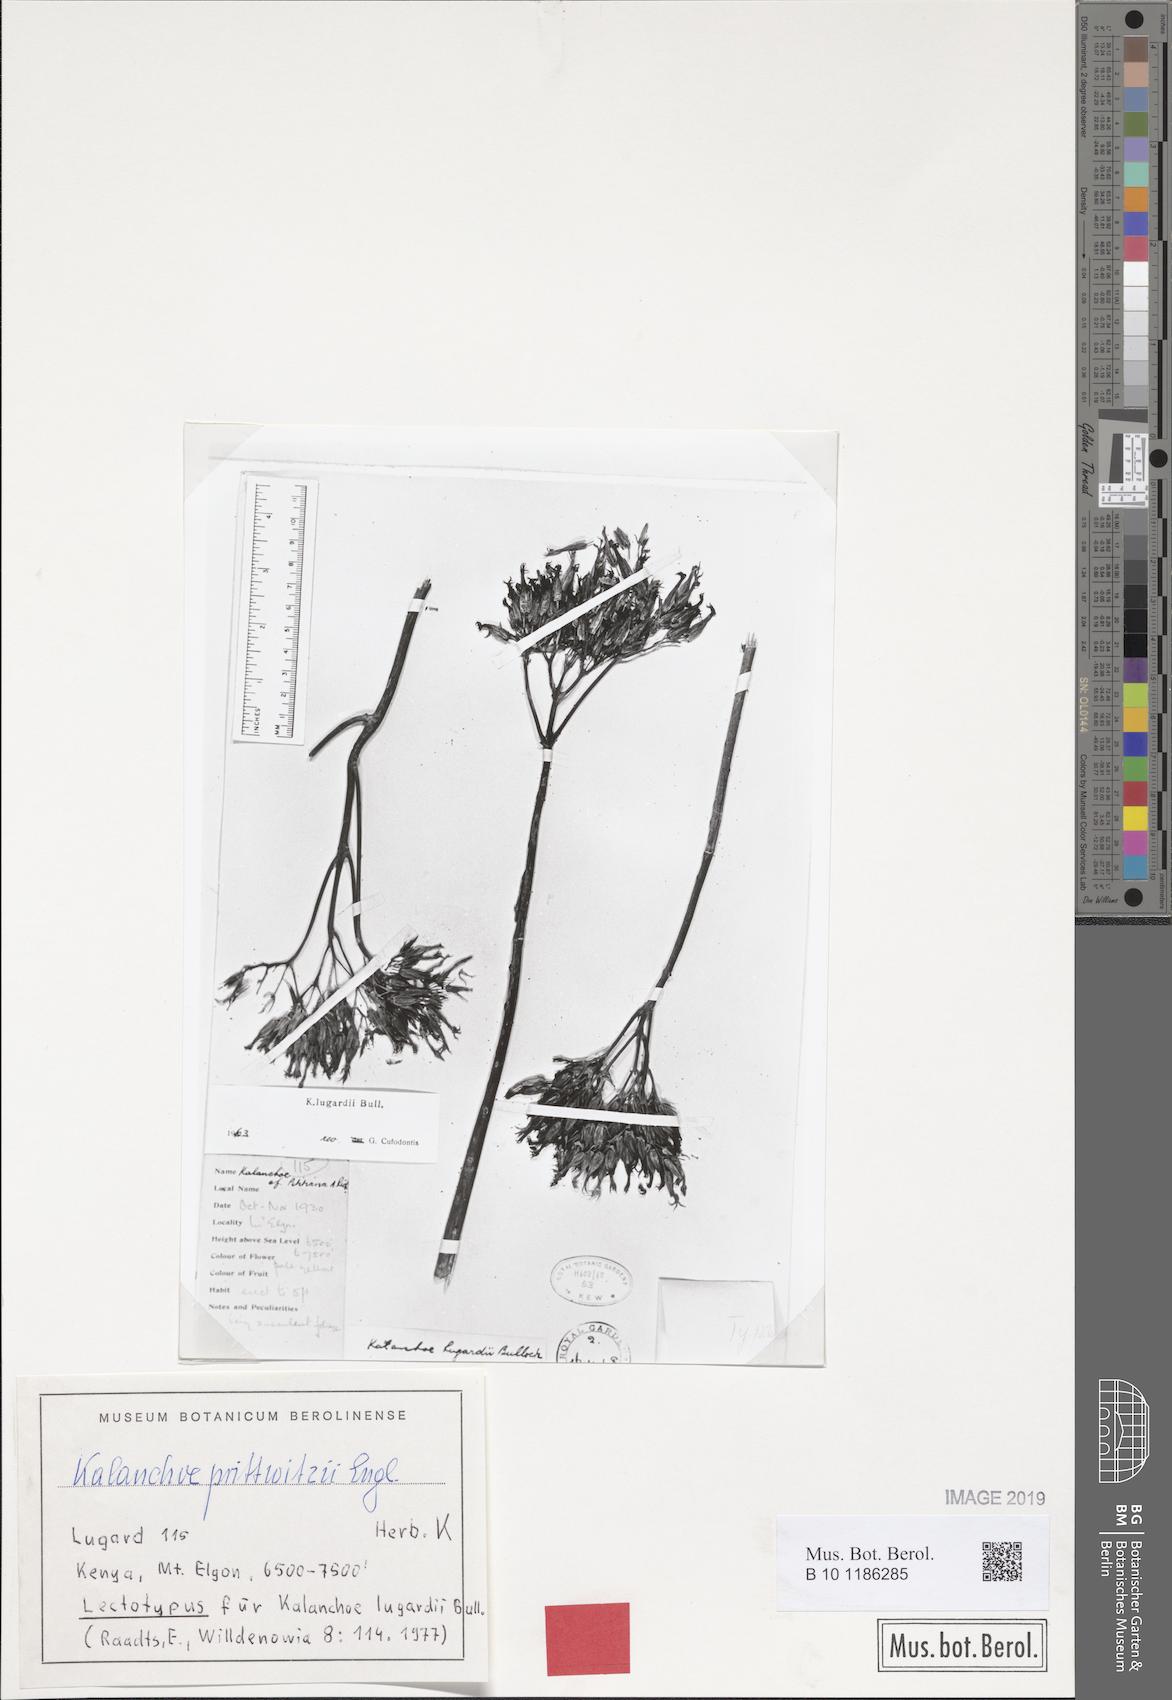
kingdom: Plantae
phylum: Tracheophyta
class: Magnoliopsida
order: Saxifragales
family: Crassulaceae
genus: Kalanchoe
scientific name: Kalanchoe prittwitzii
